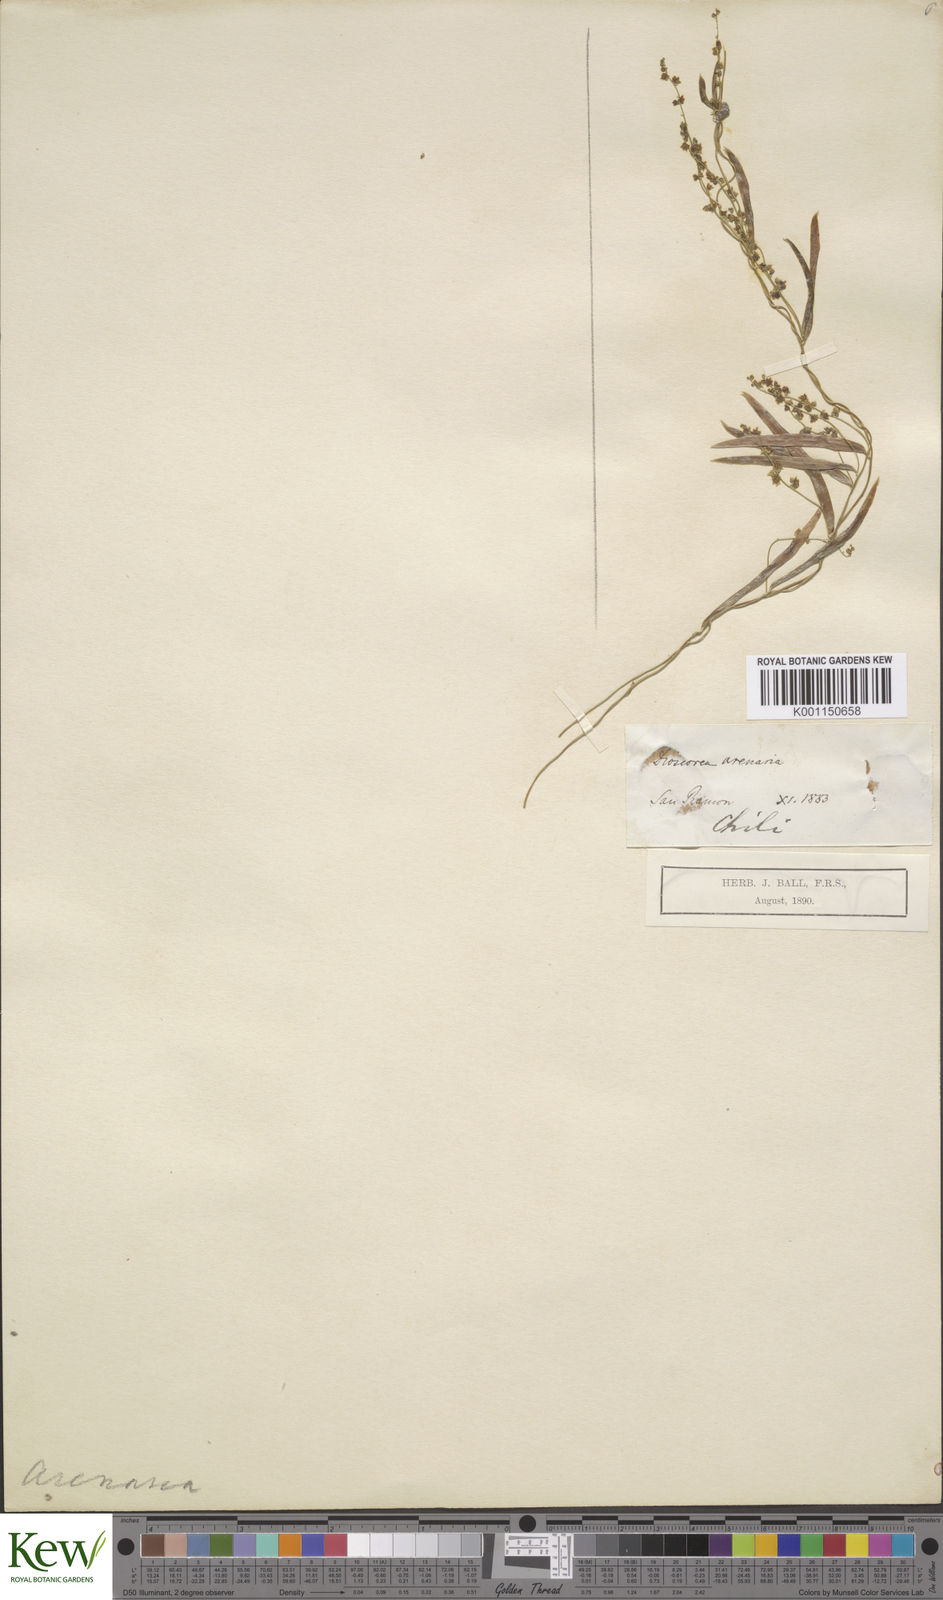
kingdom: Plantae
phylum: Tracheophyta
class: Liliopsida
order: Dioscoreales
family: Dioscoreaceae
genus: Dioscorea
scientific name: Dioscorea saxatilis
